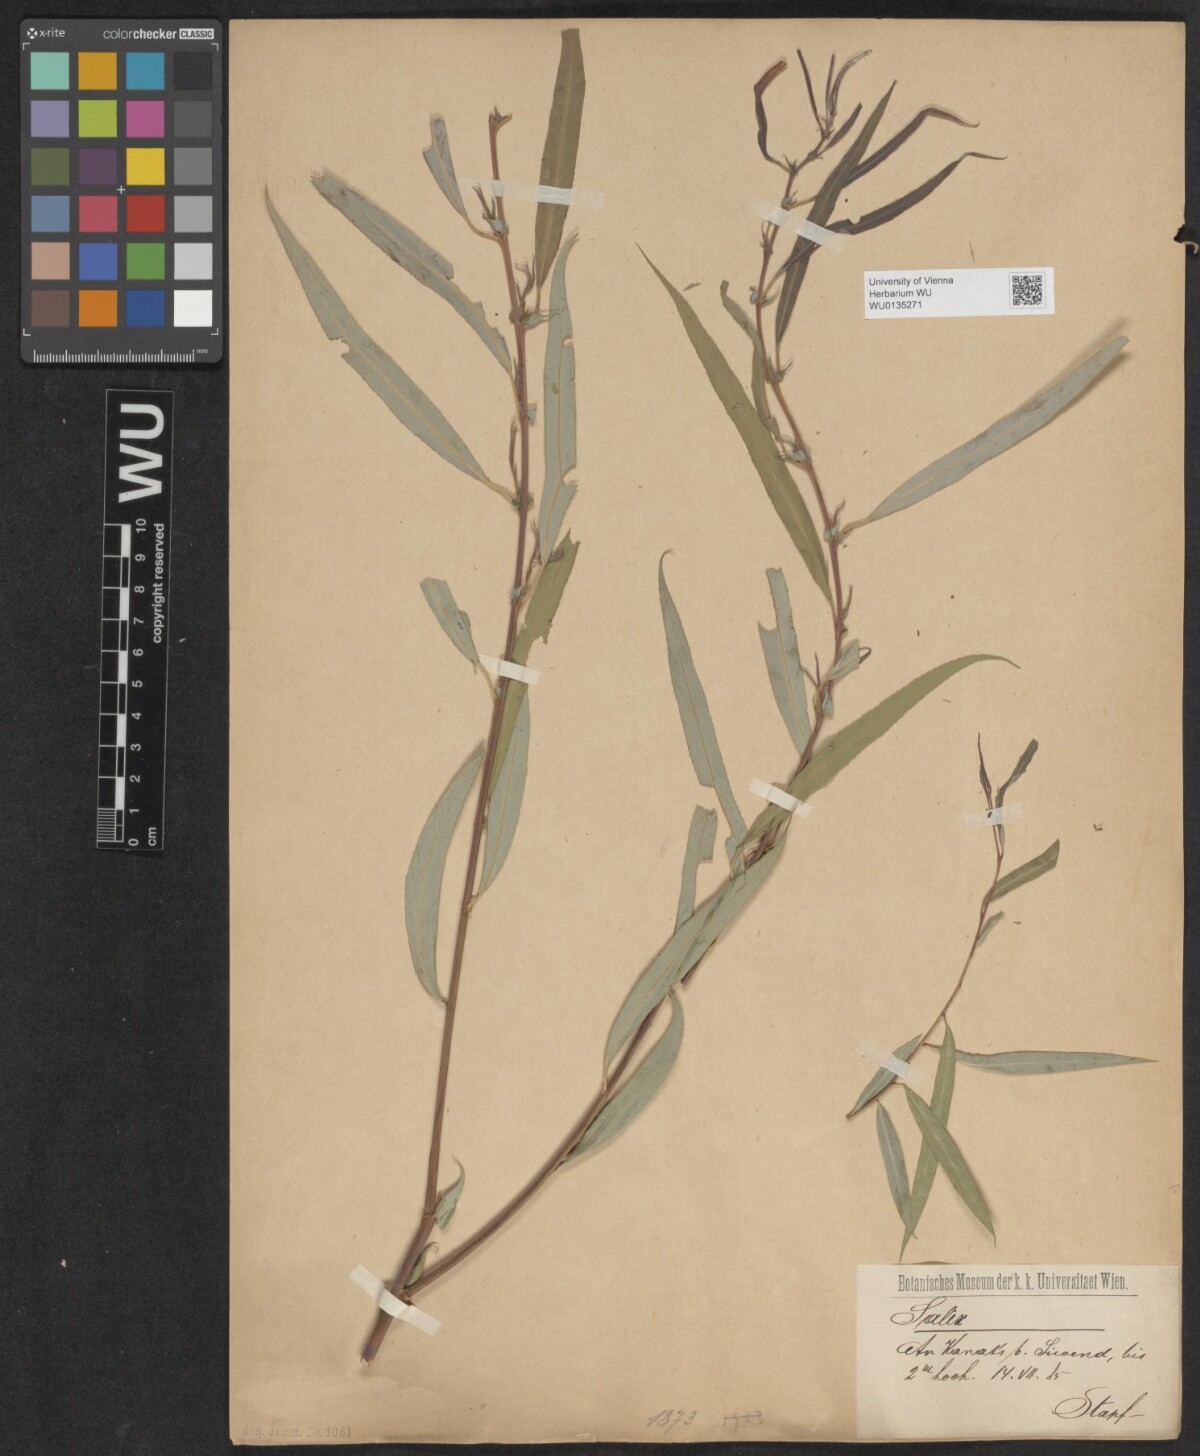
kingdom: Plantae
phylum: Tracheophyta
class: Magnoliopsida
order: Malpighiales
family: Salicaceae
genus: Salix
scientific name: Salix acmophylla
